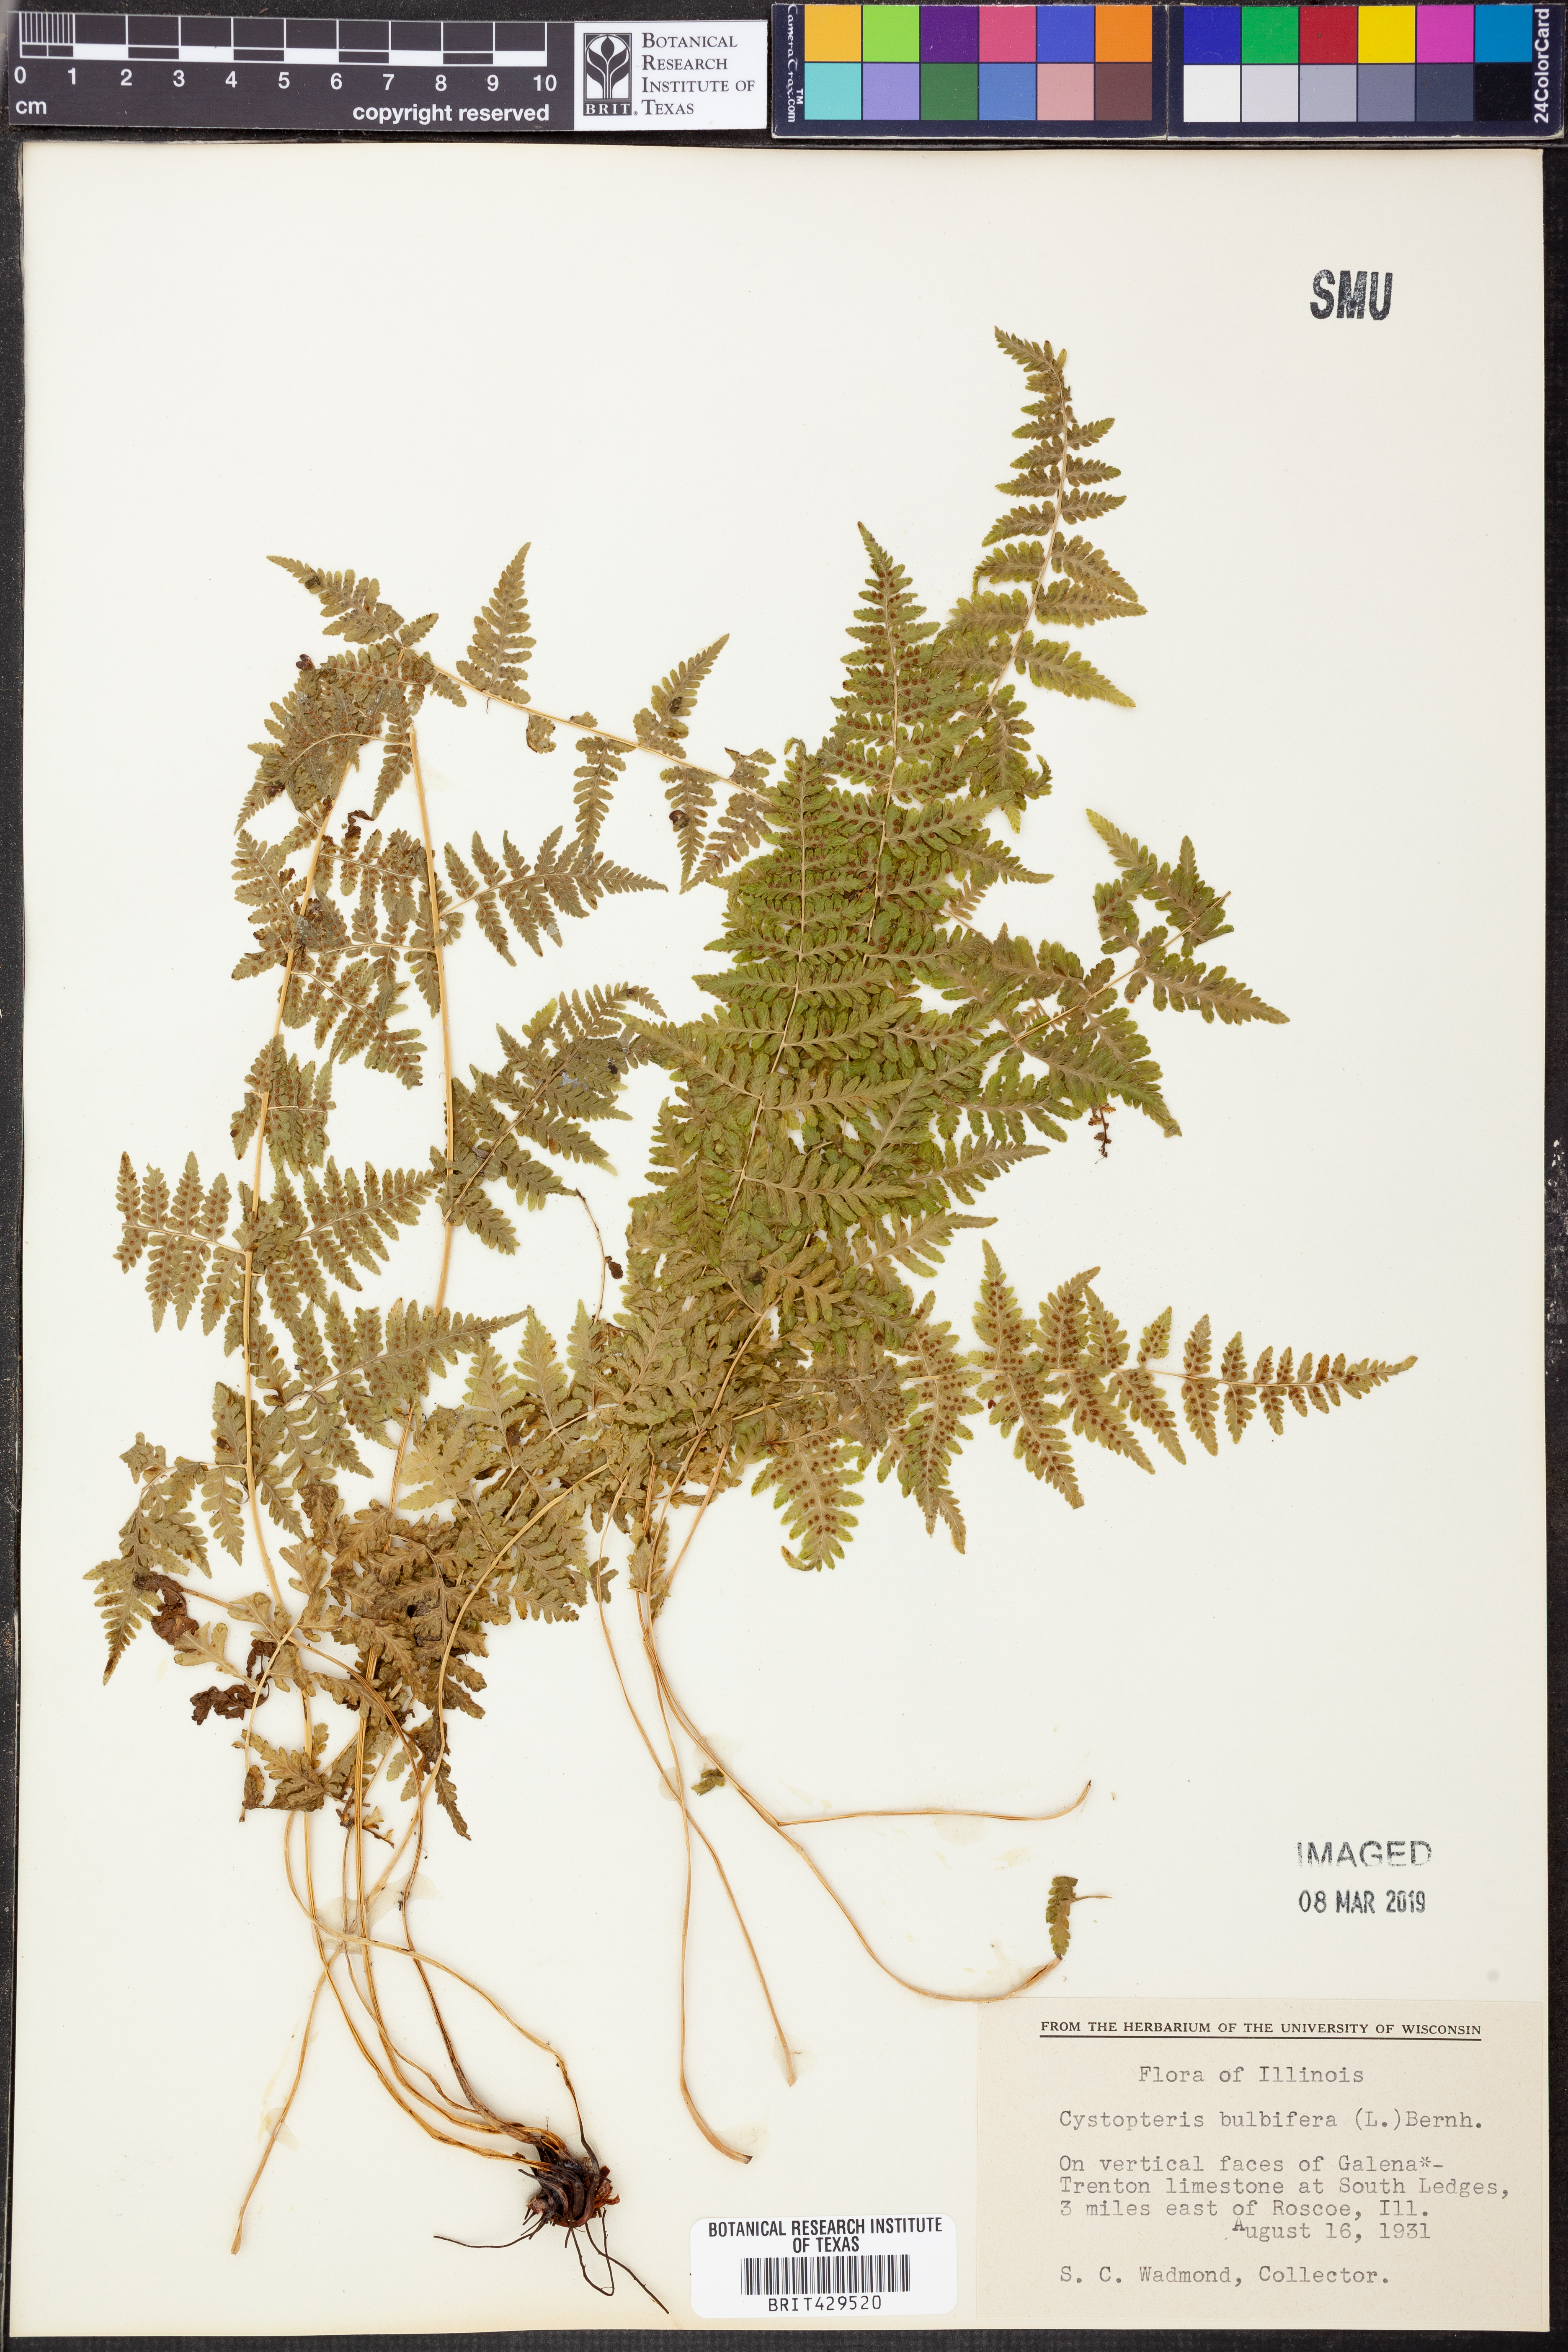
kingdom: Plantae
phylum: Tracheophyta
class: Polypodiopsida
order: Polypodiales
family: Cystopteridaceae
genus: Cystopteris
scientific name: Cystopteris bulbifera
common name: Bulblet bladder fern
